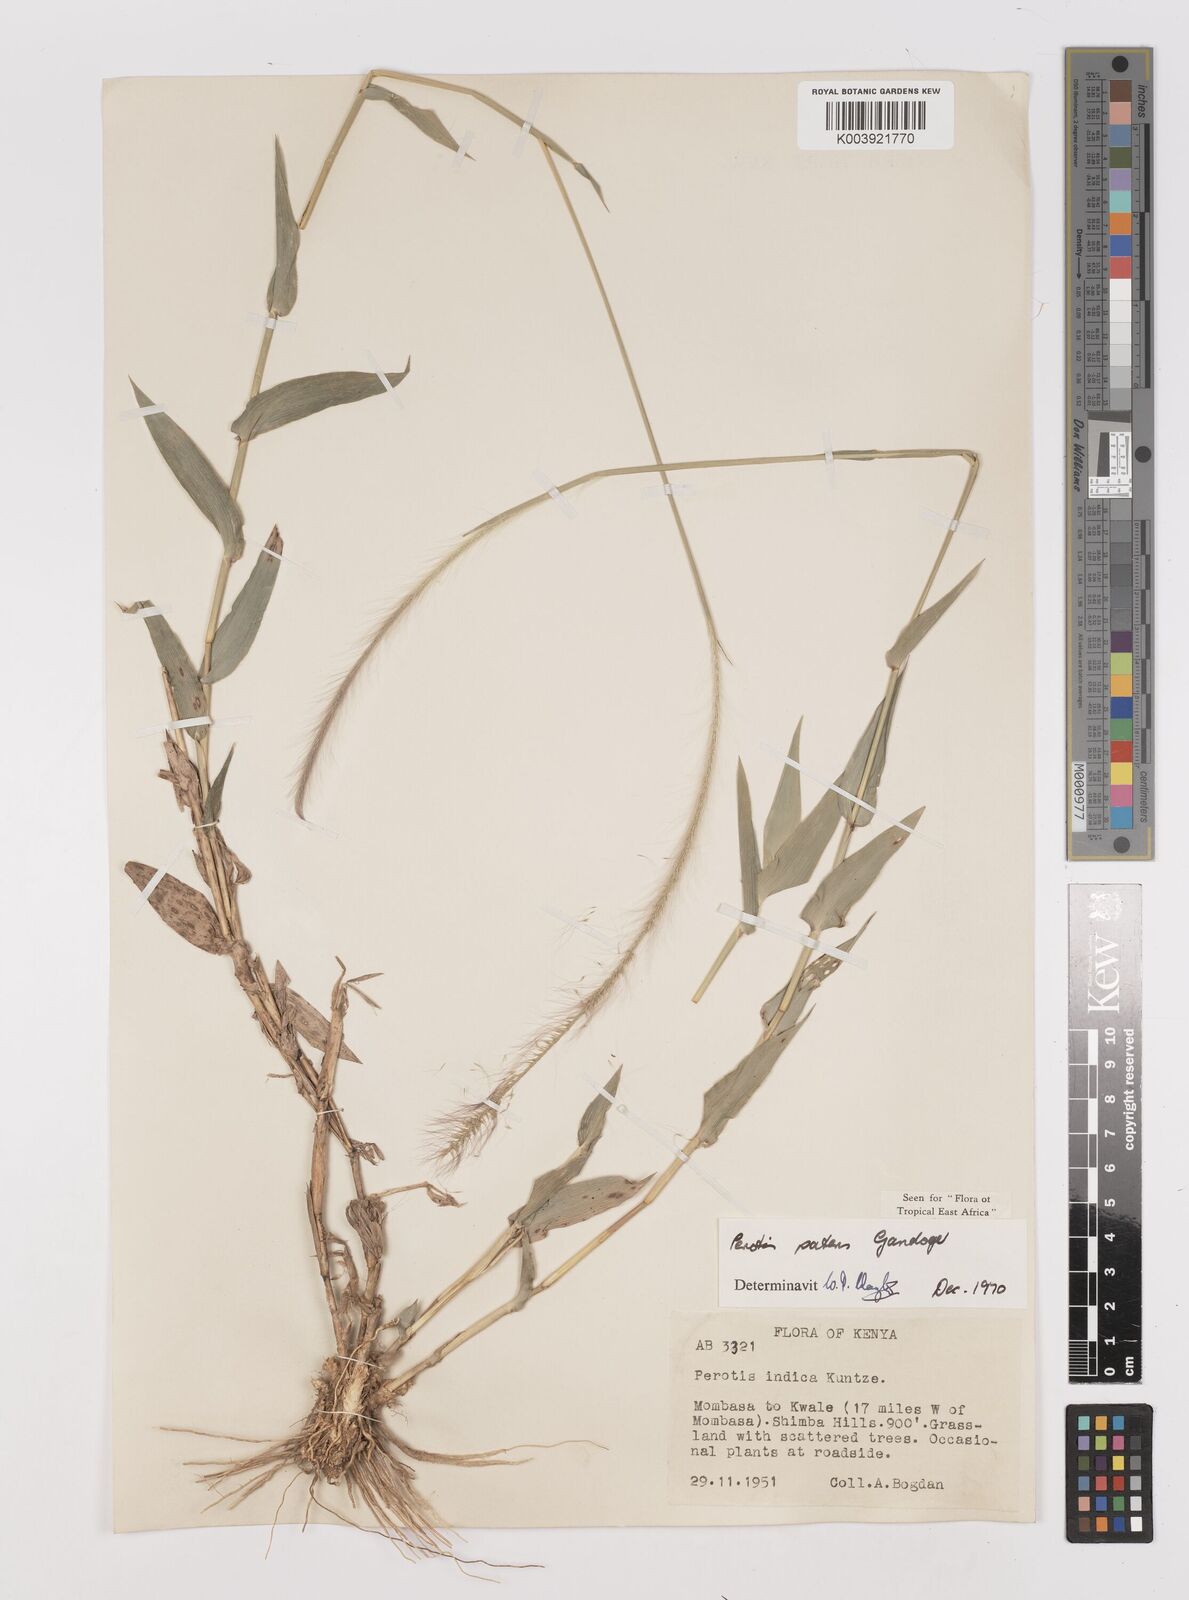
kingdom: Plantae
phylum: Tracheophyta
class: Liliopsida
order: Poales
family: Poaceae
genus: Perotis
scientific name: Perotis patens
